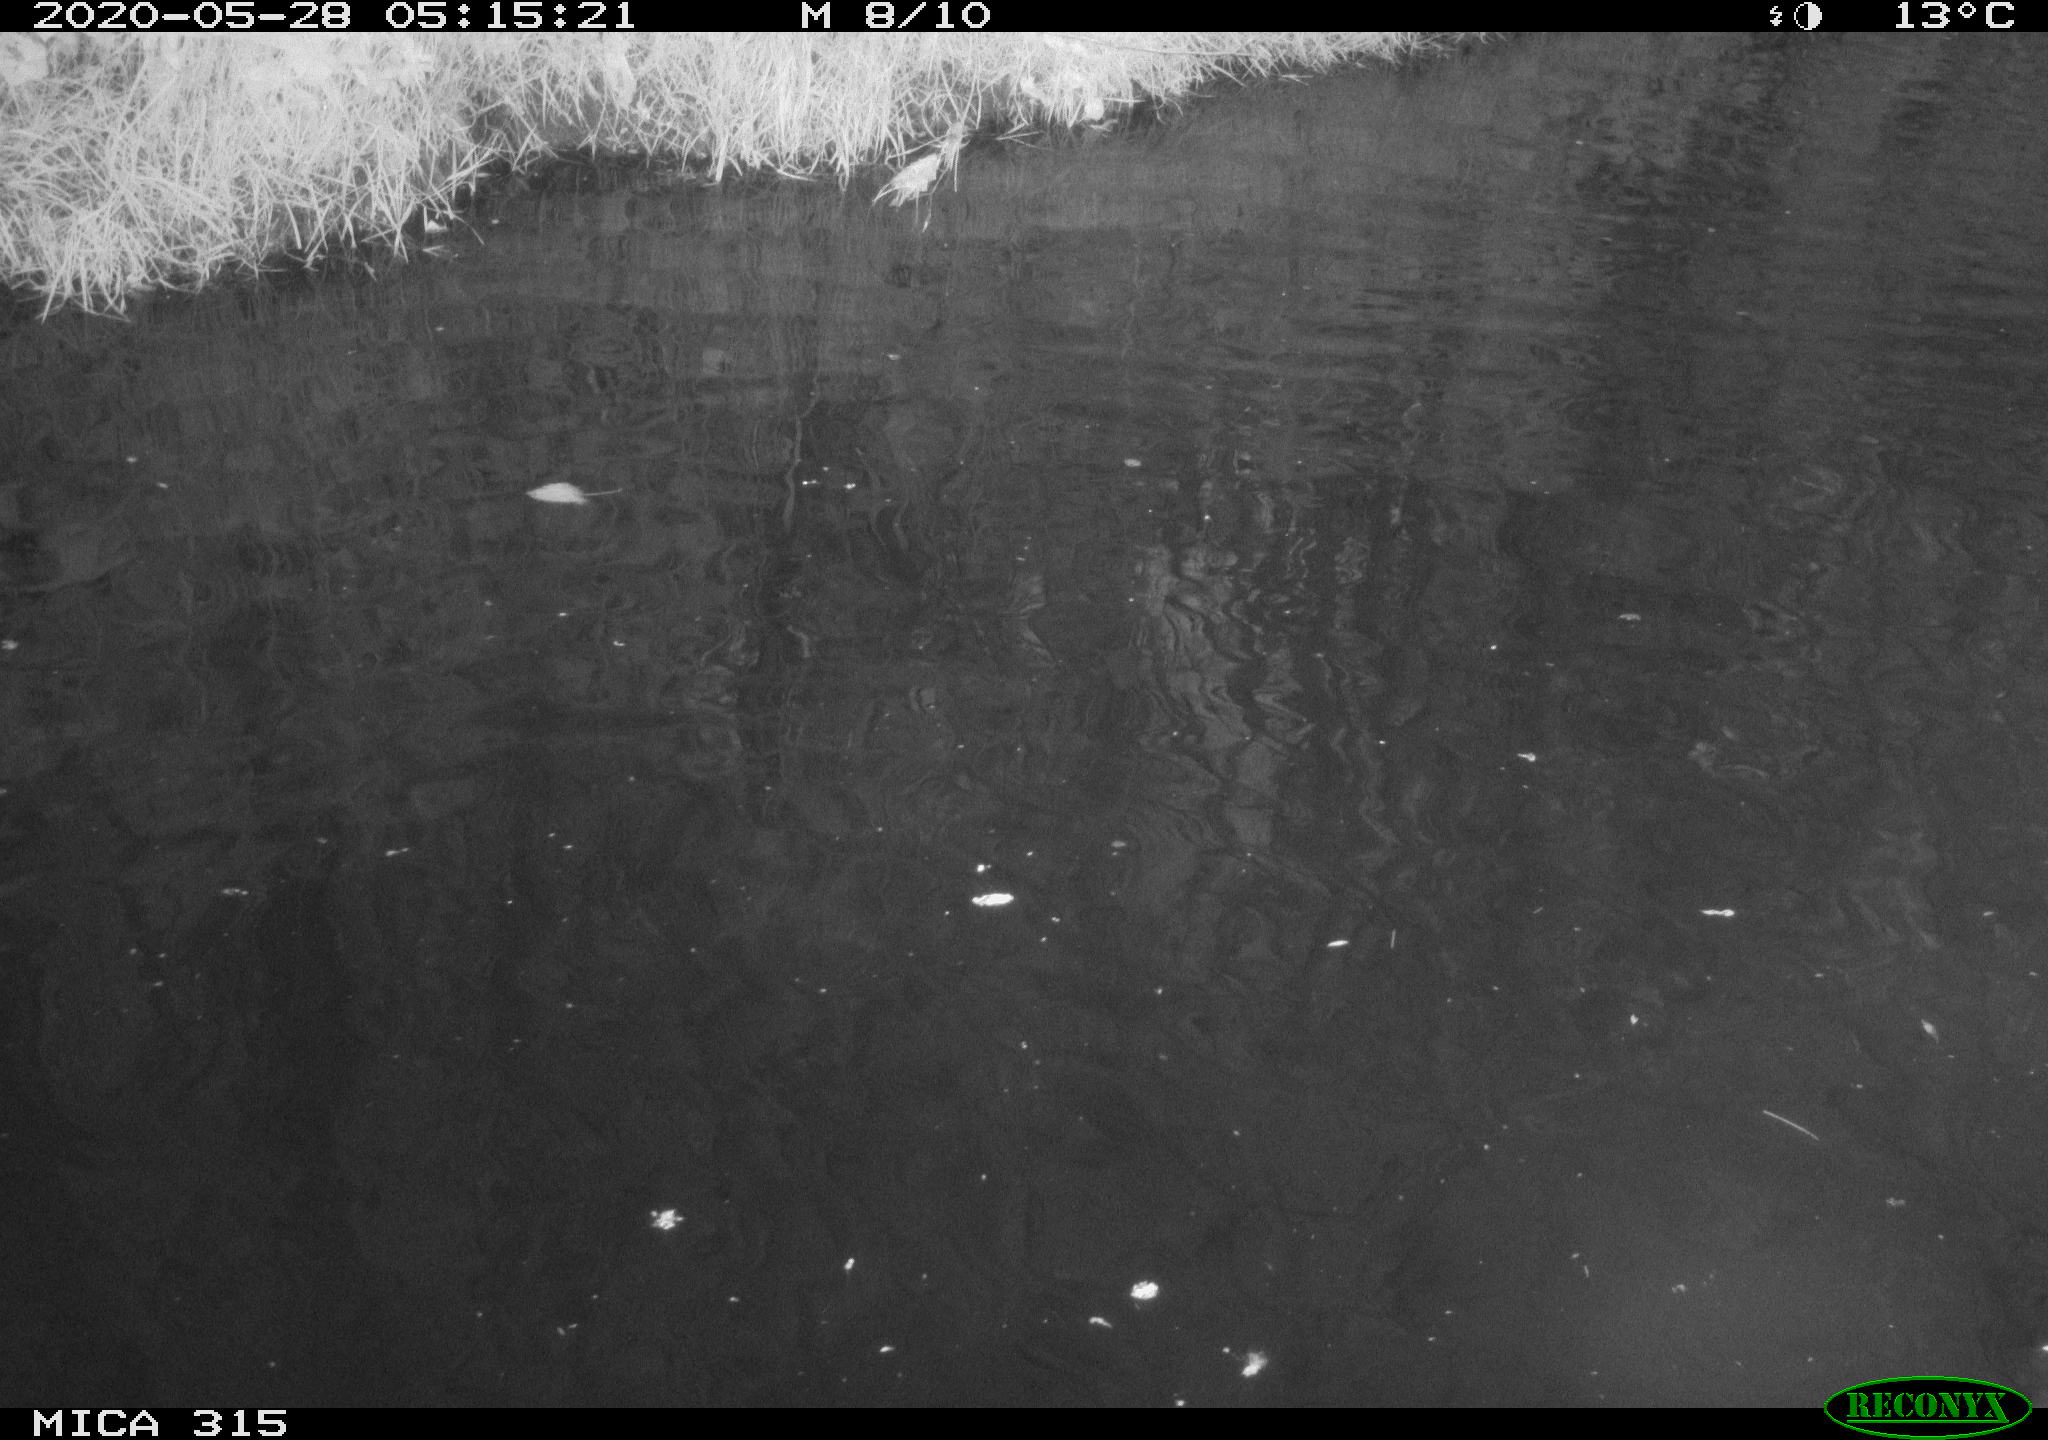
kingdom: Animalia
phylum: Chordata
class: Aves
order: Anseriformes
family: Anatidae
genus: Anas
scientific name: Anas platyrhynchos
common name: Mallard
